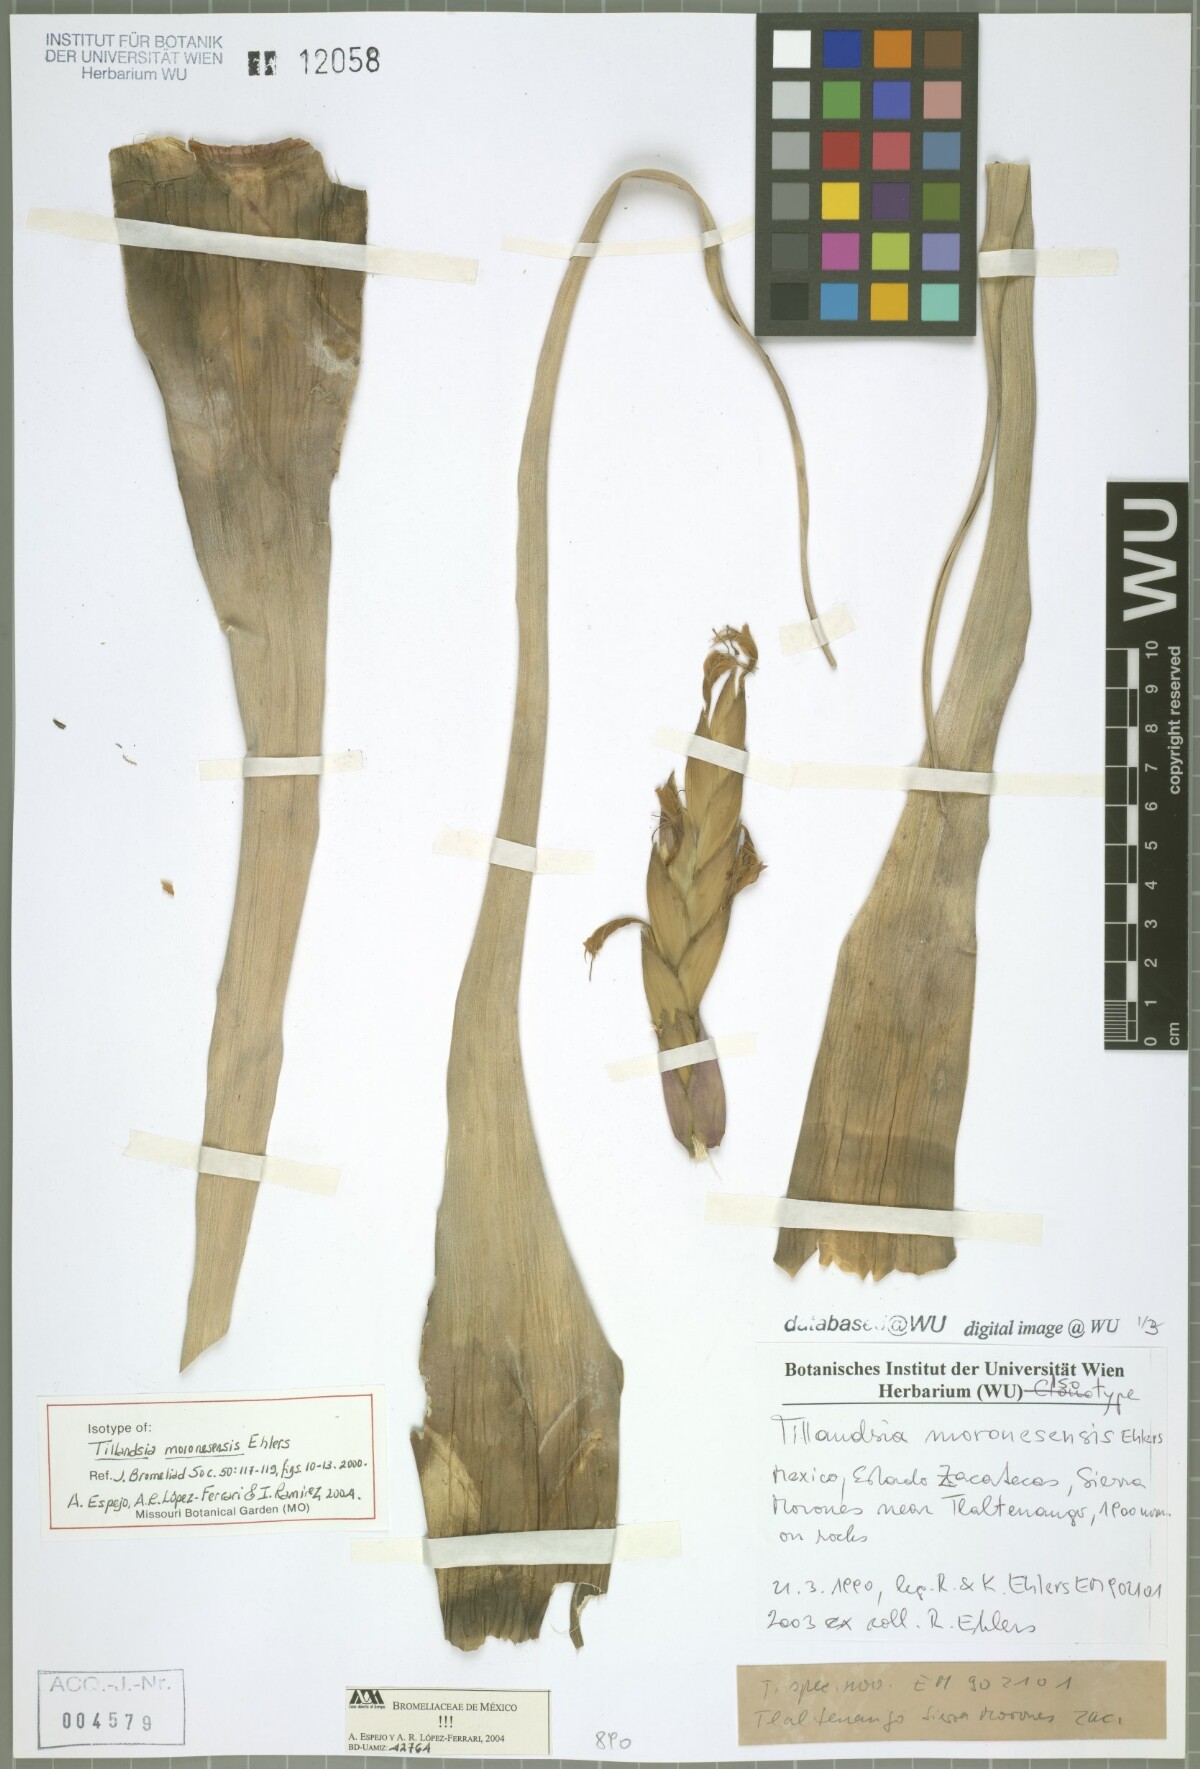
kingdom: Plantae
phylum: Tracheophyta
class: Liliopsida
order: Poales
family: Bromeliaceae
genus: Tillandsia
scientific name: Tillandsia moronesensis
